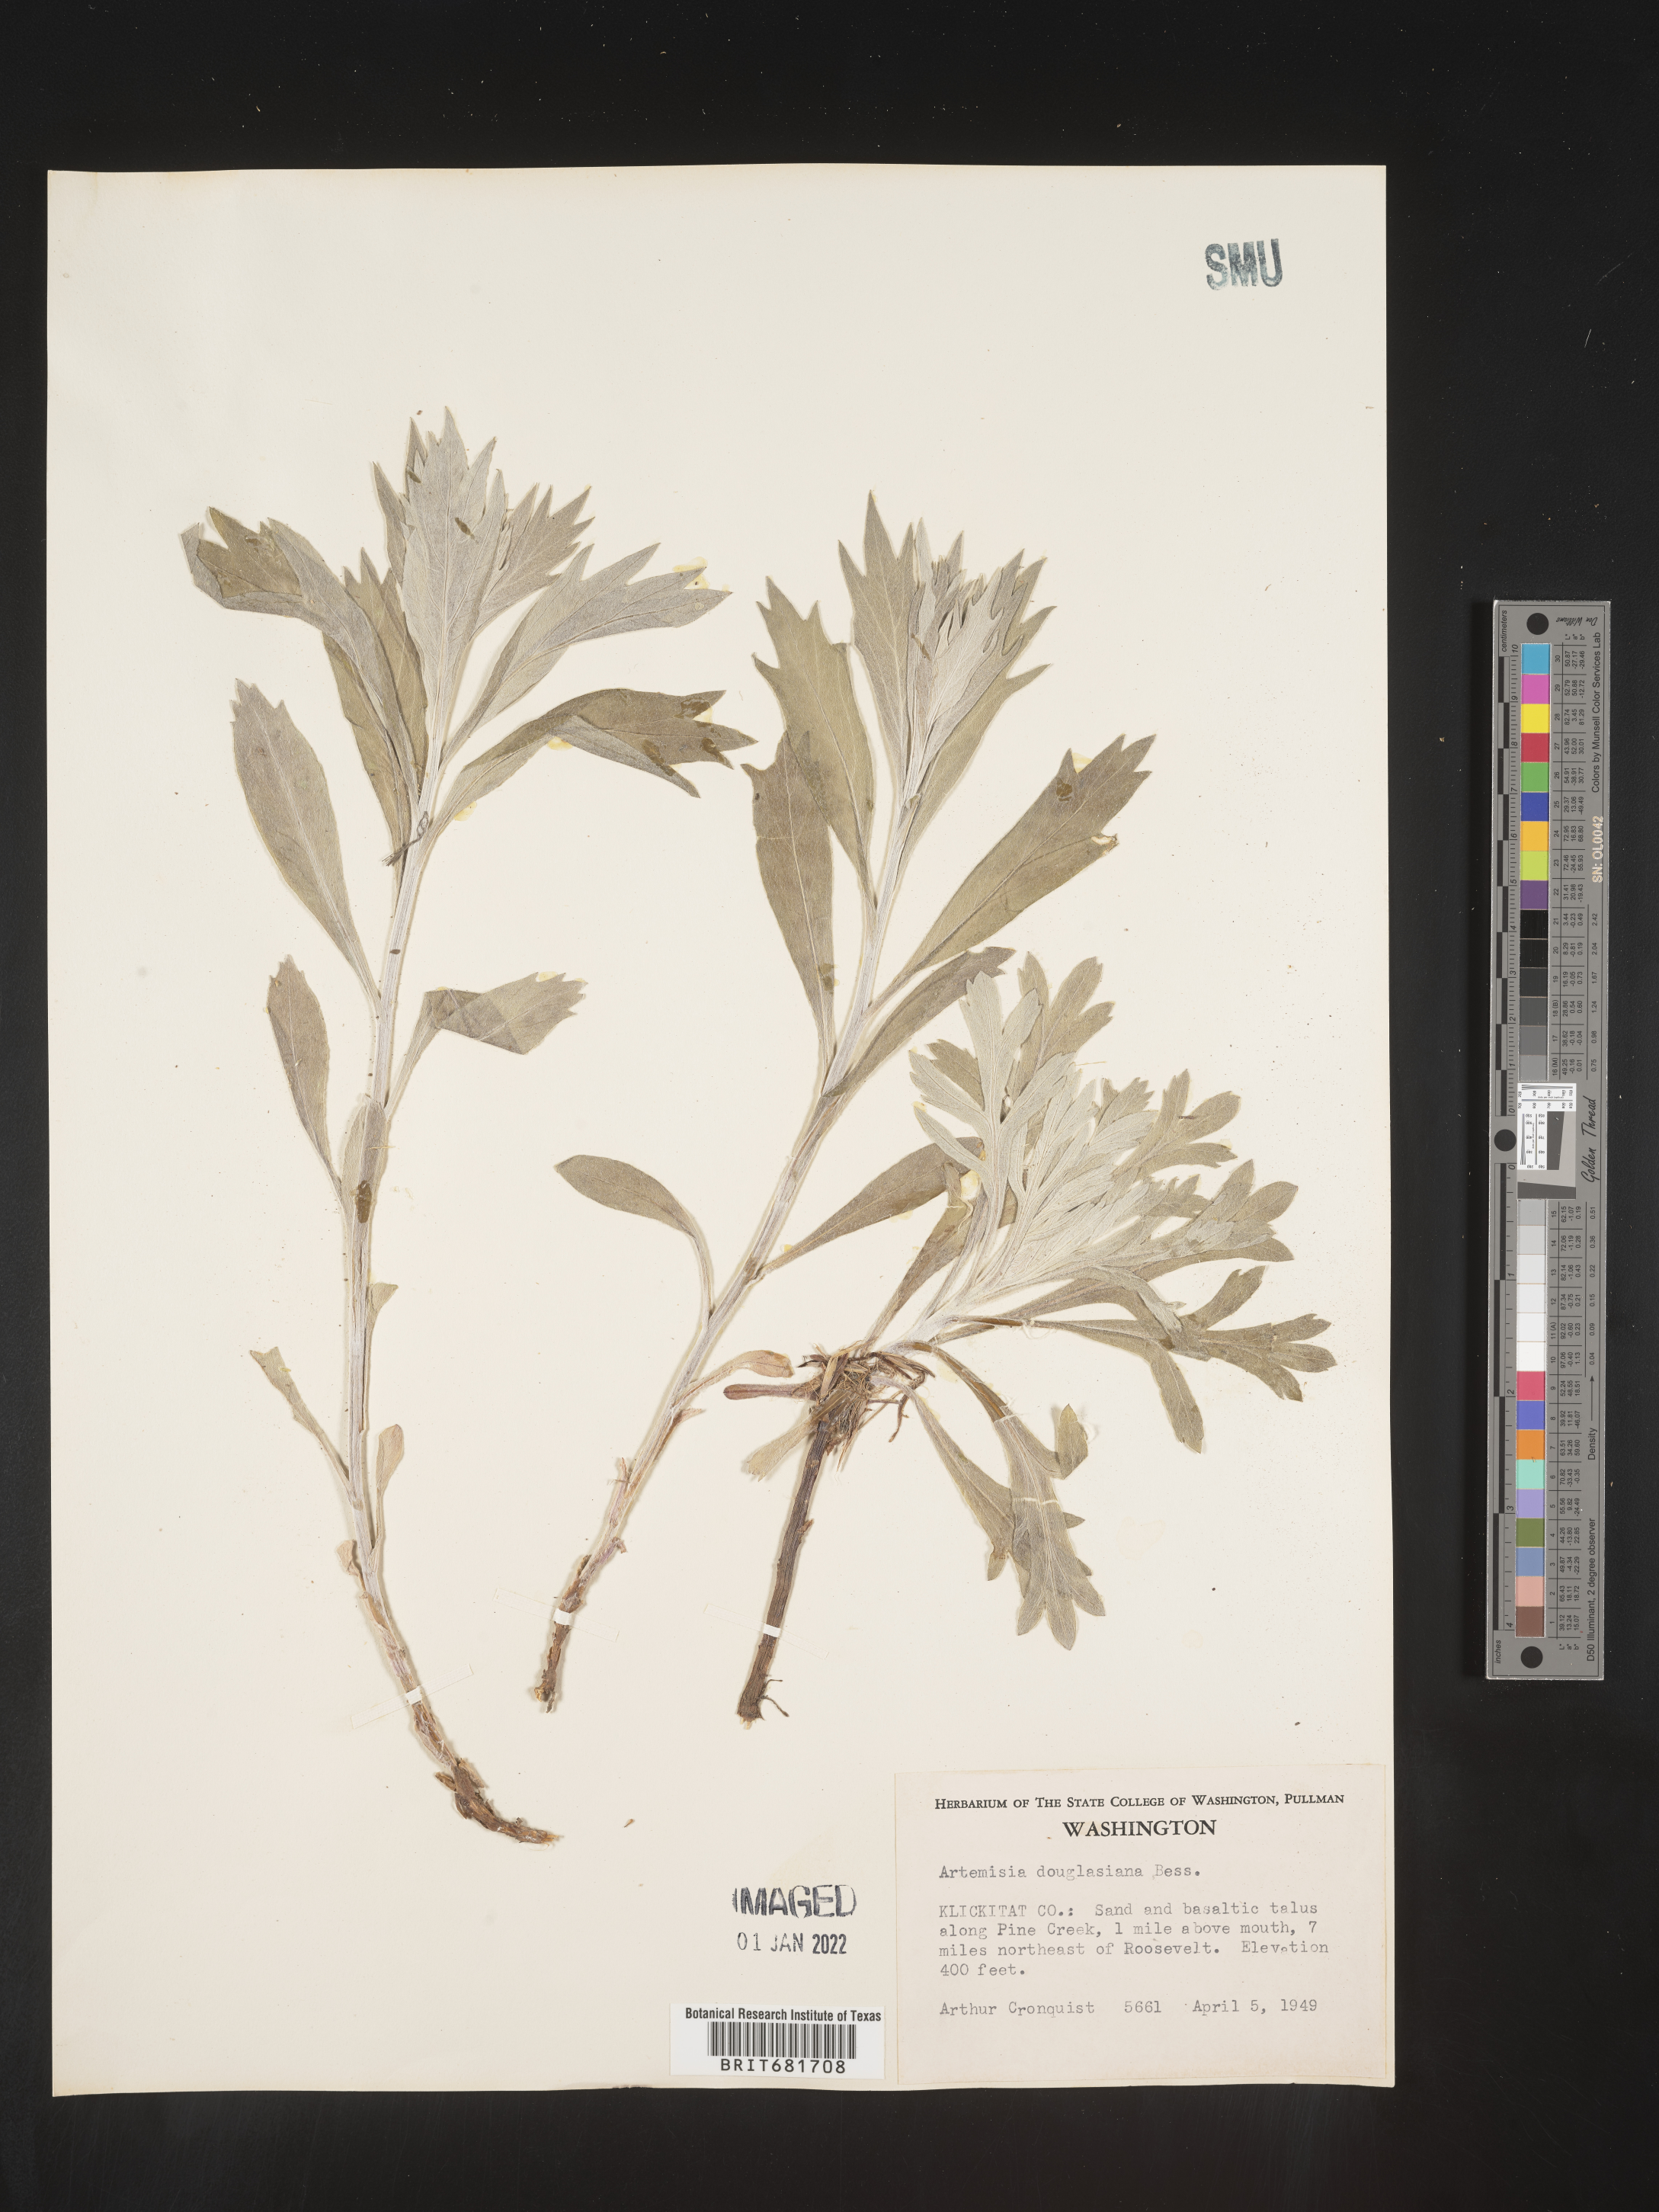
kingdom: Plantae
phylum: Tracheophyta
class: Magnoliopsida
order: Asterales
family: Asteraceae
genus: Artemisia
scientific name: Artemisia douglasiana
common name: Northwest mugwort
